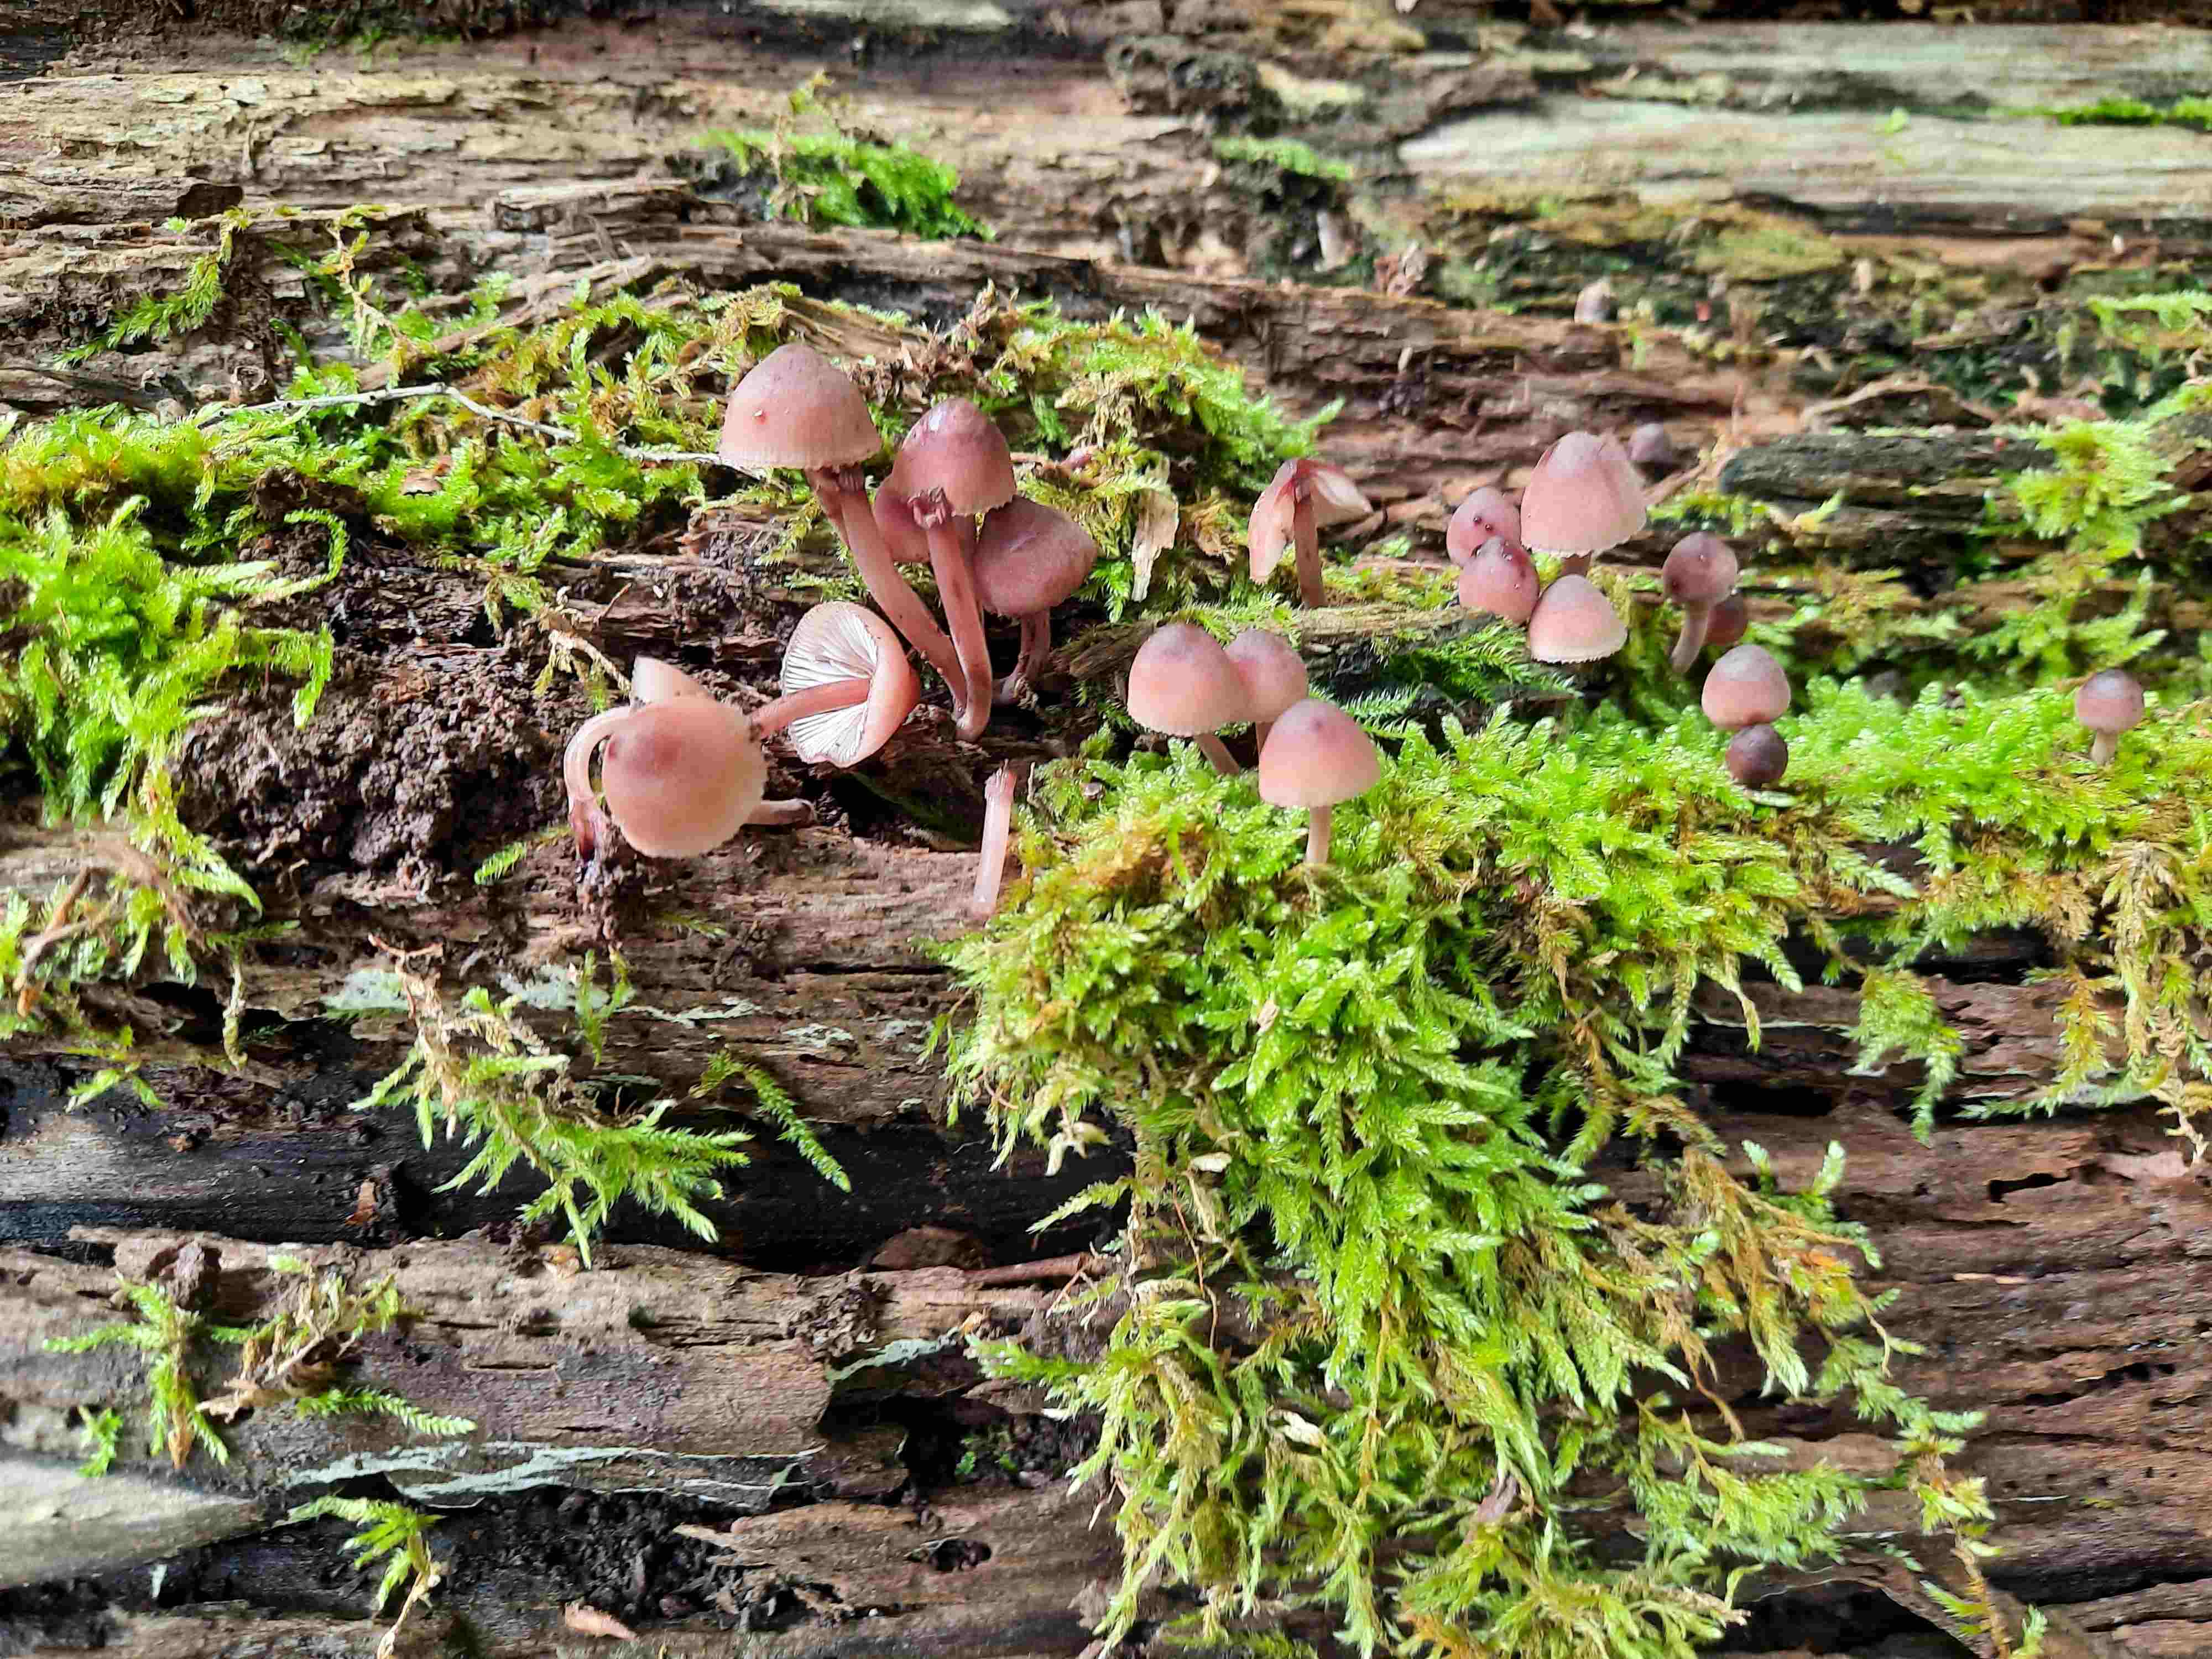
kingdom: Fungi
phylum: Basidiomycota
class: Agaricomycetes
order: Agaricales
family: Mycenaceae
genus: Mycena
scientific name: Mycena haematopus
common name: blødende huesvamp
